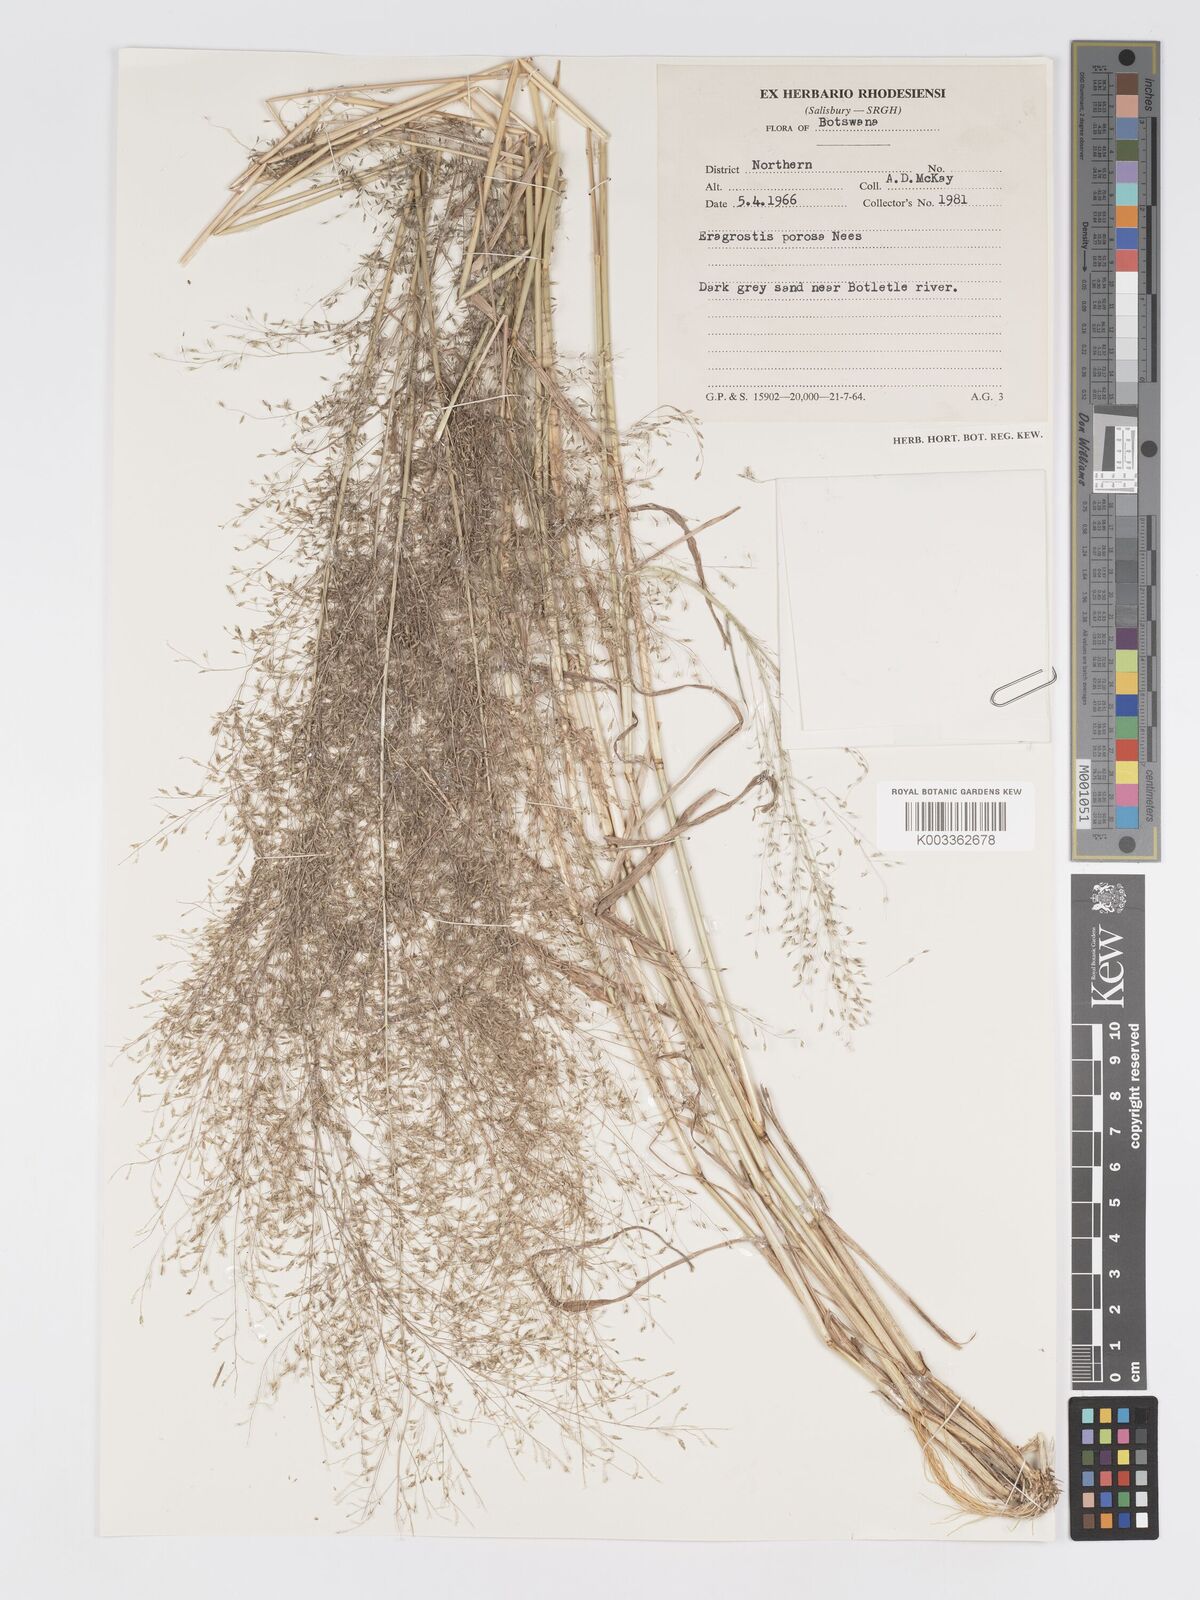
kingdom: Plantae
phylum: Tracheophyta
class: Liliopsida
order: Poales
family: Poaceae
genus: Eragrostis
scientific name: Eragrostis porosa
